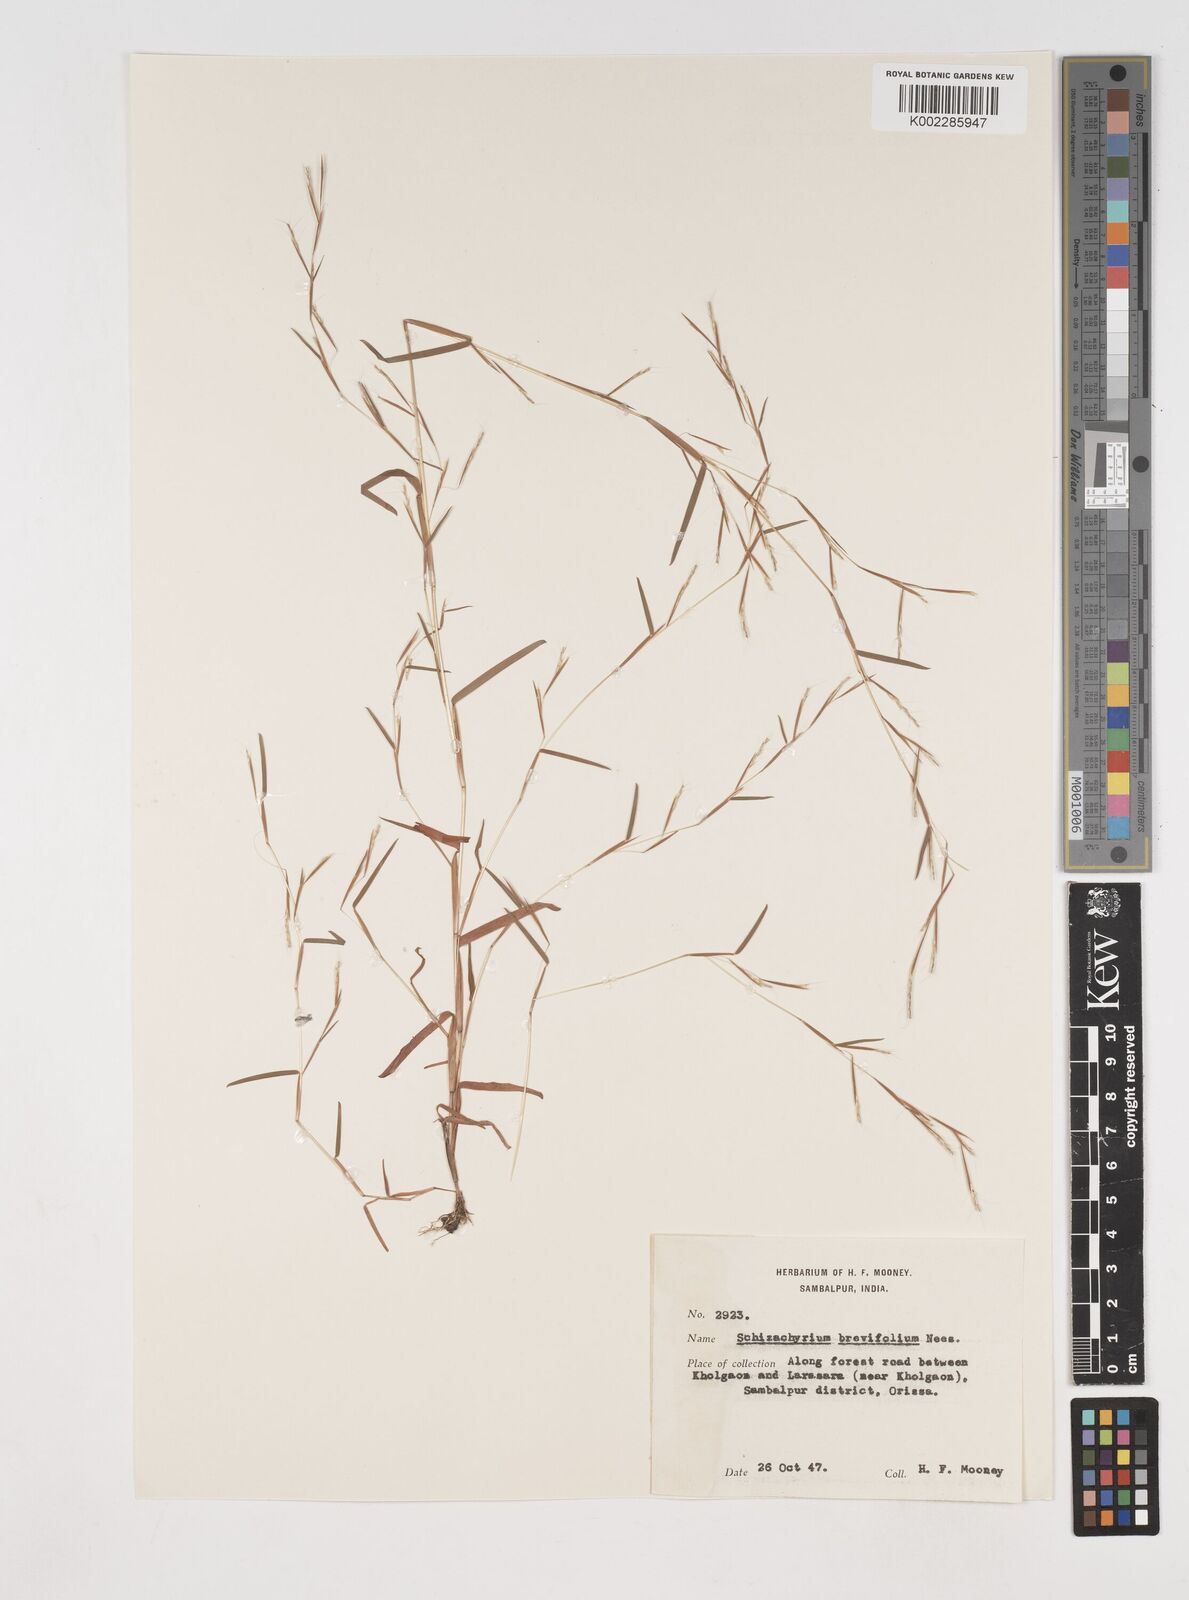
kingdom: Plantae
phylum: Tracheophyta
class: Liliopsida
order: Poales
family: Poaceae
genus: Schizachyrium
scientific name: Schizachyrium brevifolium
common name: Serillo dulce
